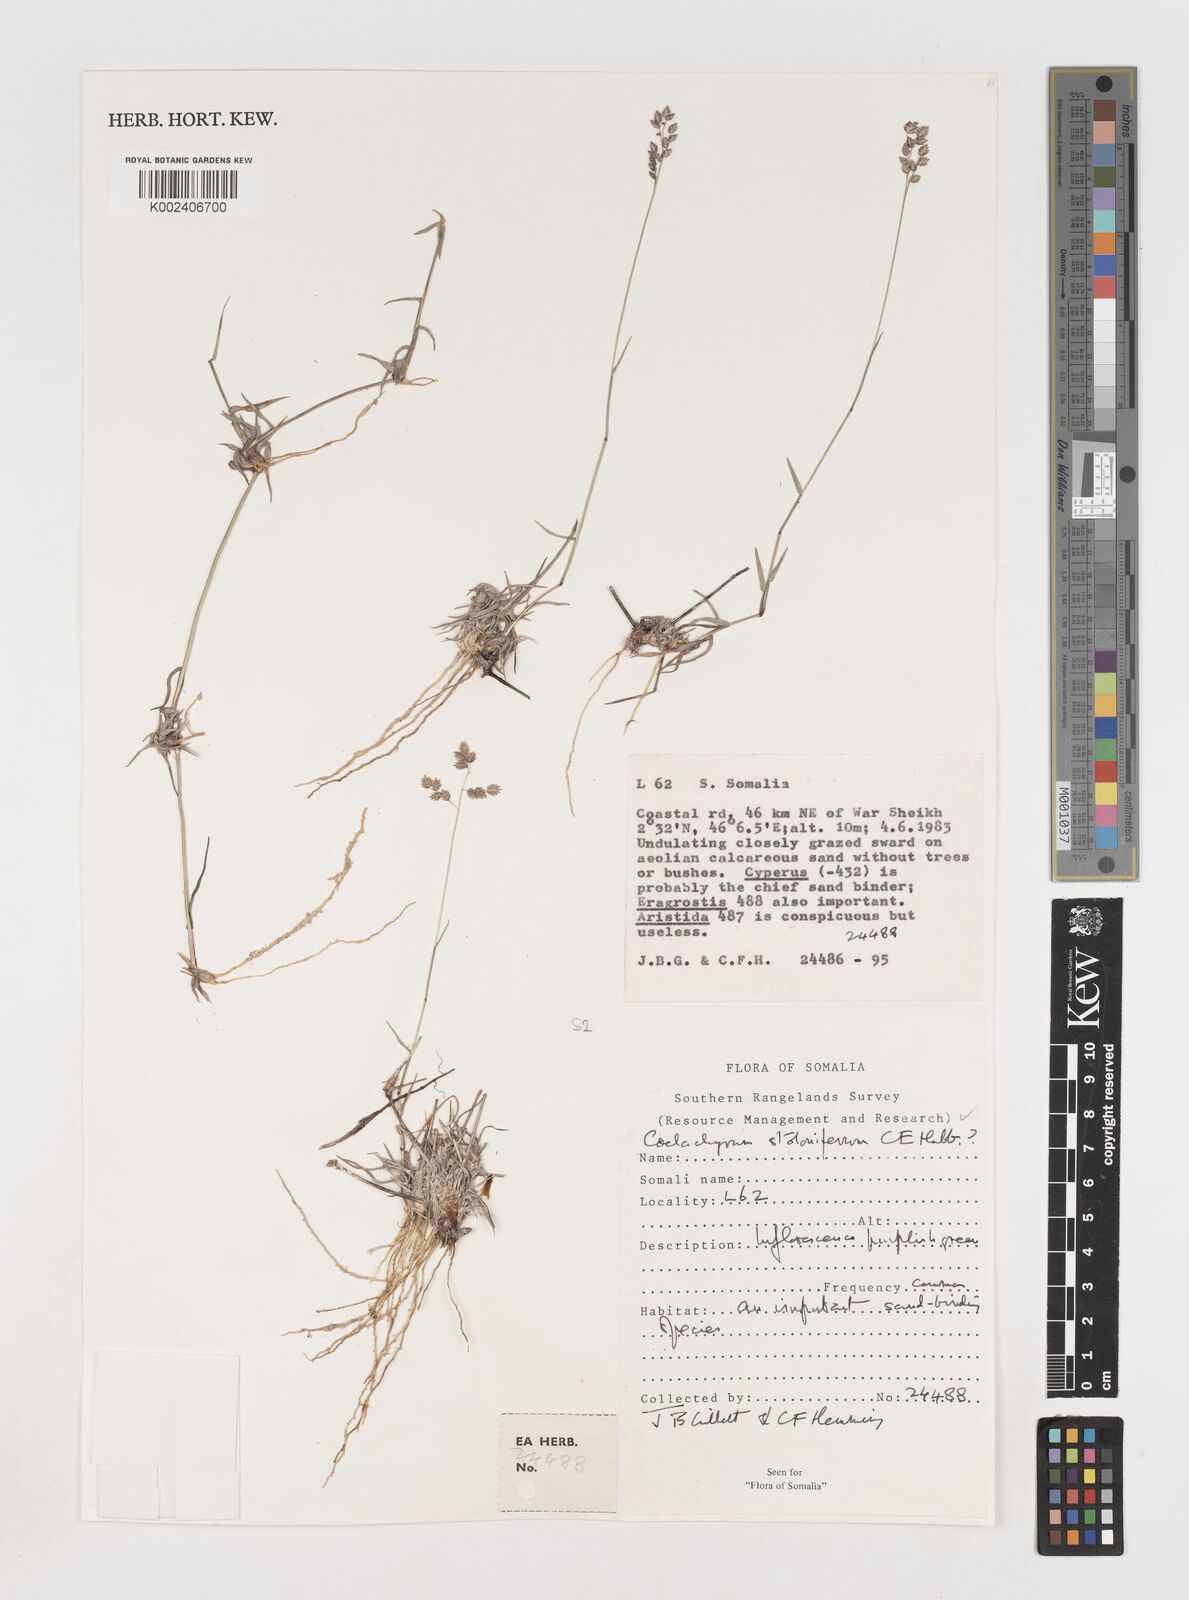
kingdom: Plantae
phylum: Tracheophyta
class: Liliopsida
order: Poales
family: Poaceae
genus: Coelachyrum
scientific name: Coelachyrum piercei
